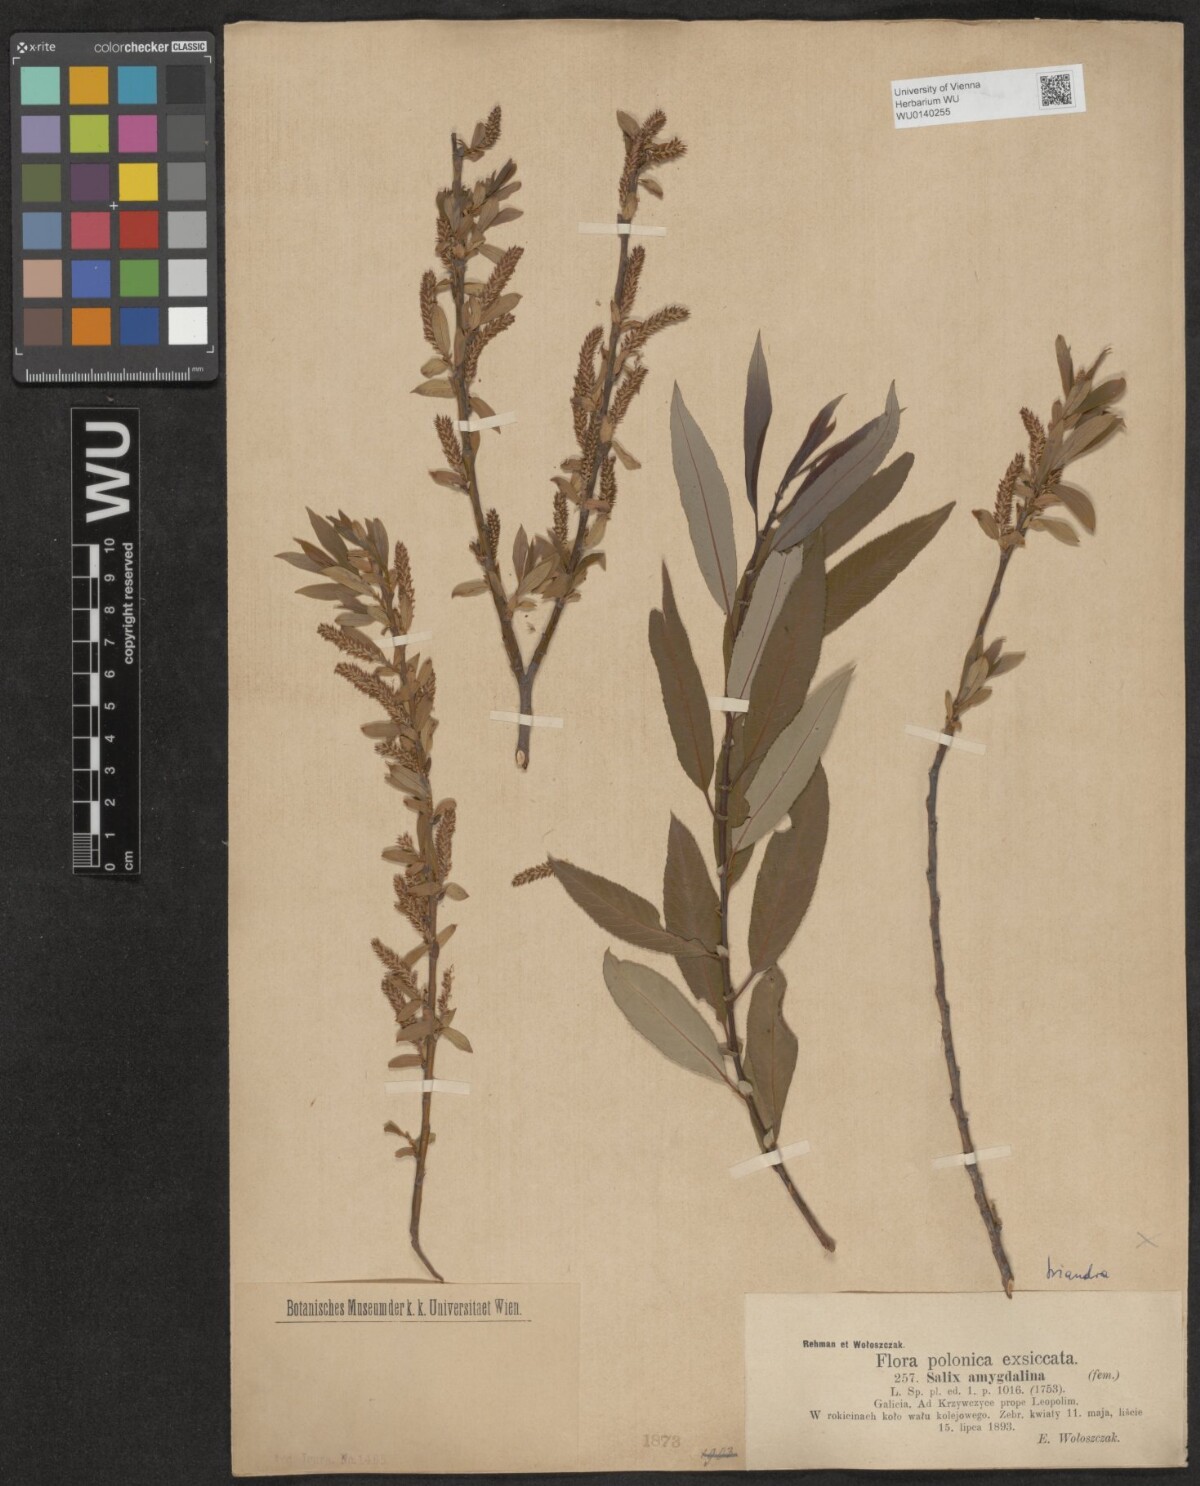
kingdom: Plantae
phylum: Tracheophyta
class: Magnoliopsida
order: Malpighiales
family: Salicaceae
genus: Salix
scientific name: Salix triandra
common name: Almond willow
